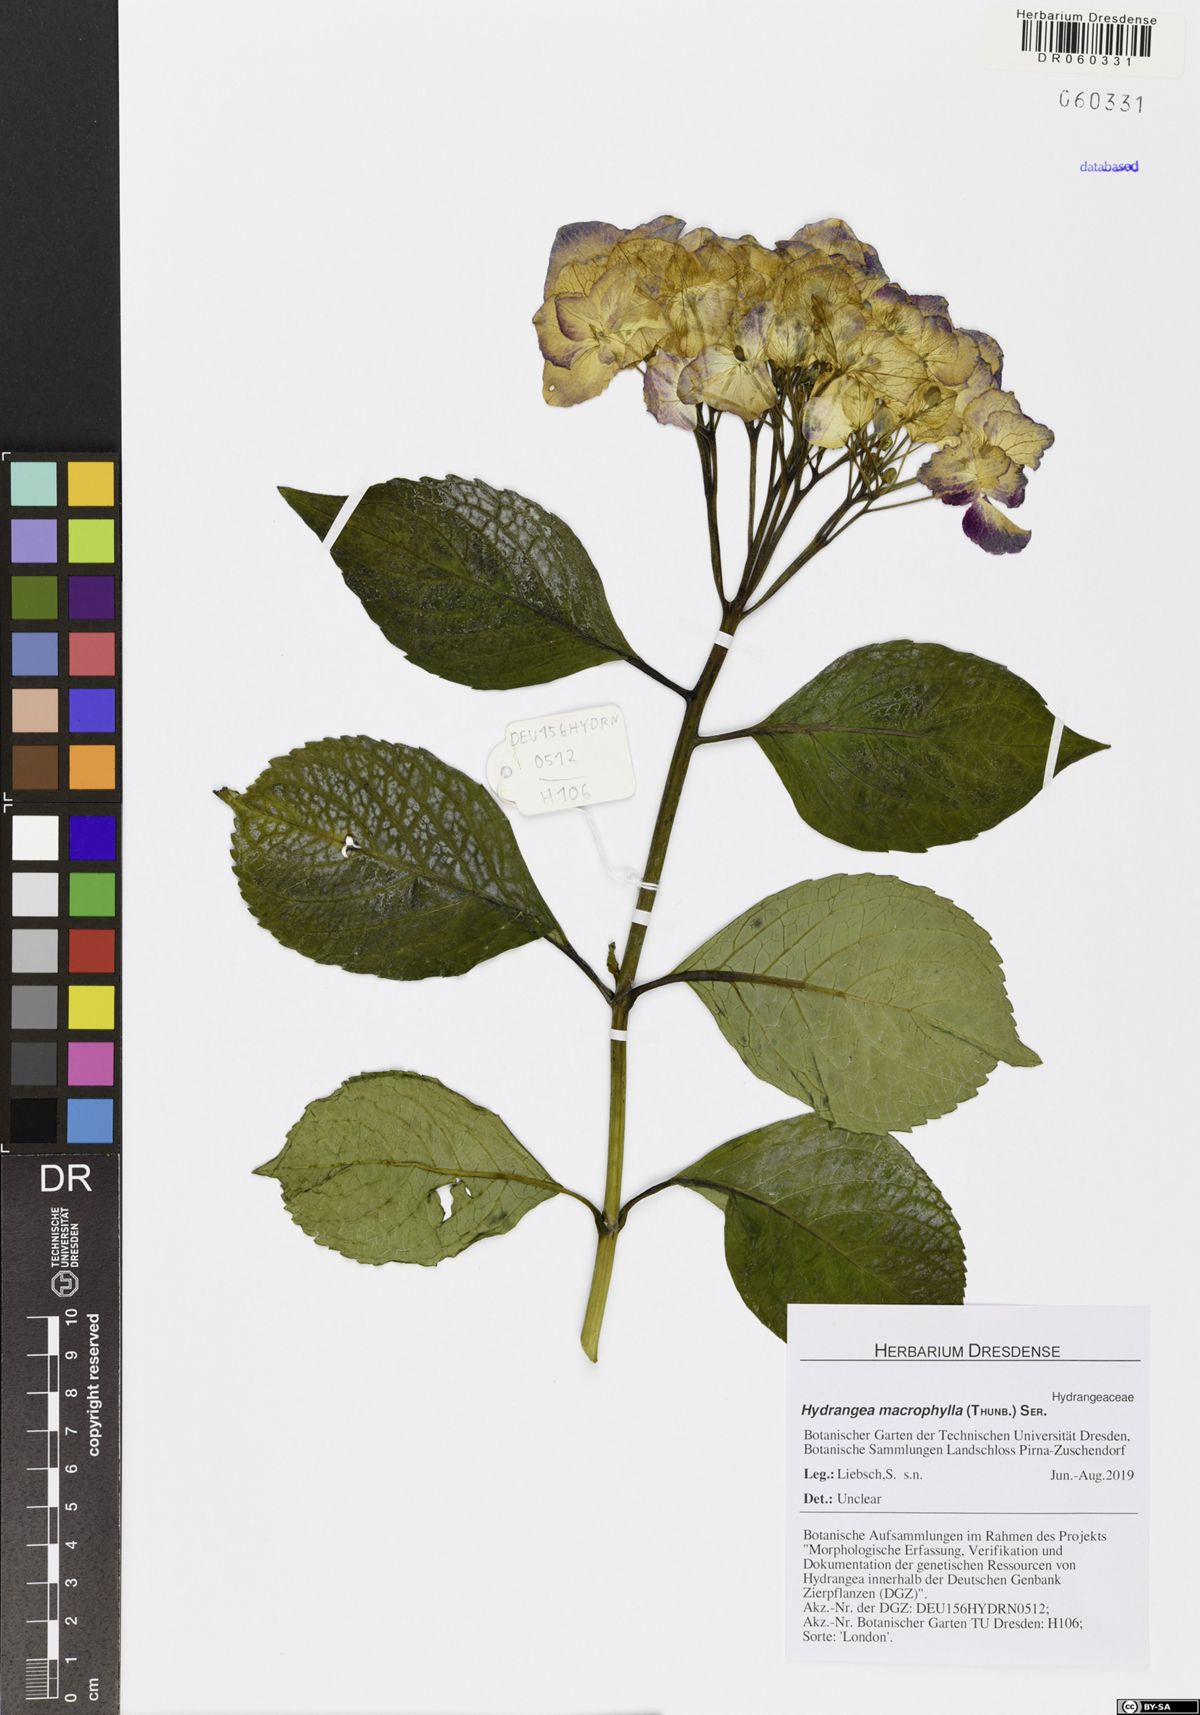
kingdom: Plantae
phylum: Tracheophyta
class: Magnoliopsida
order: Cornales
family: Hydrangeaceae
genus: Hydrangea
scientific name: Hydrangea macrophylla
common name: Hydrangea
